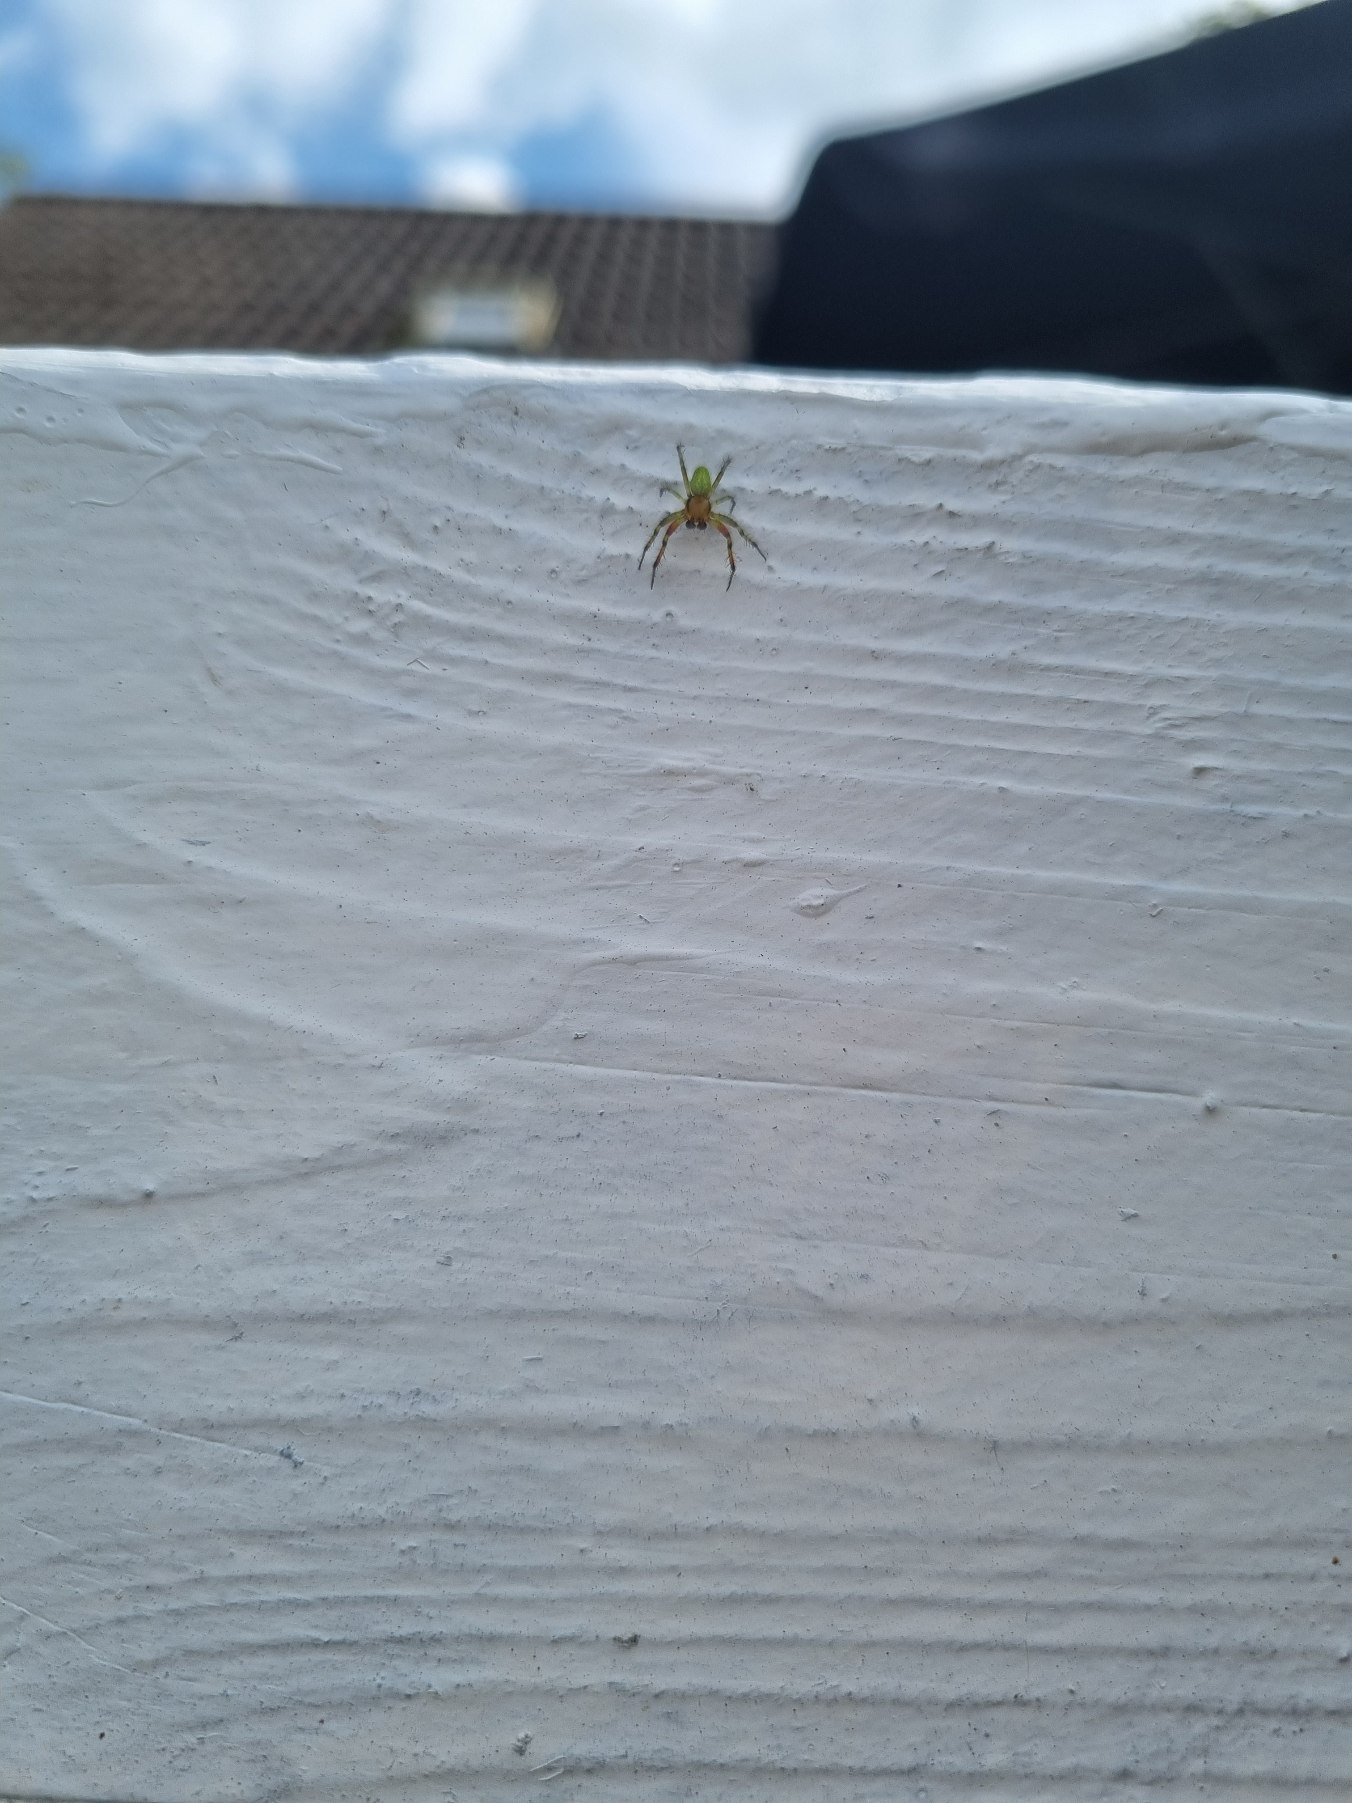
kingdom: Animalia
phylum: Arthropoda
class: Arachnida
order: Araneae
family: Araneidae
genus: Araniella
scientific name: Araniella
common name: Agurkeedderkopslægten
